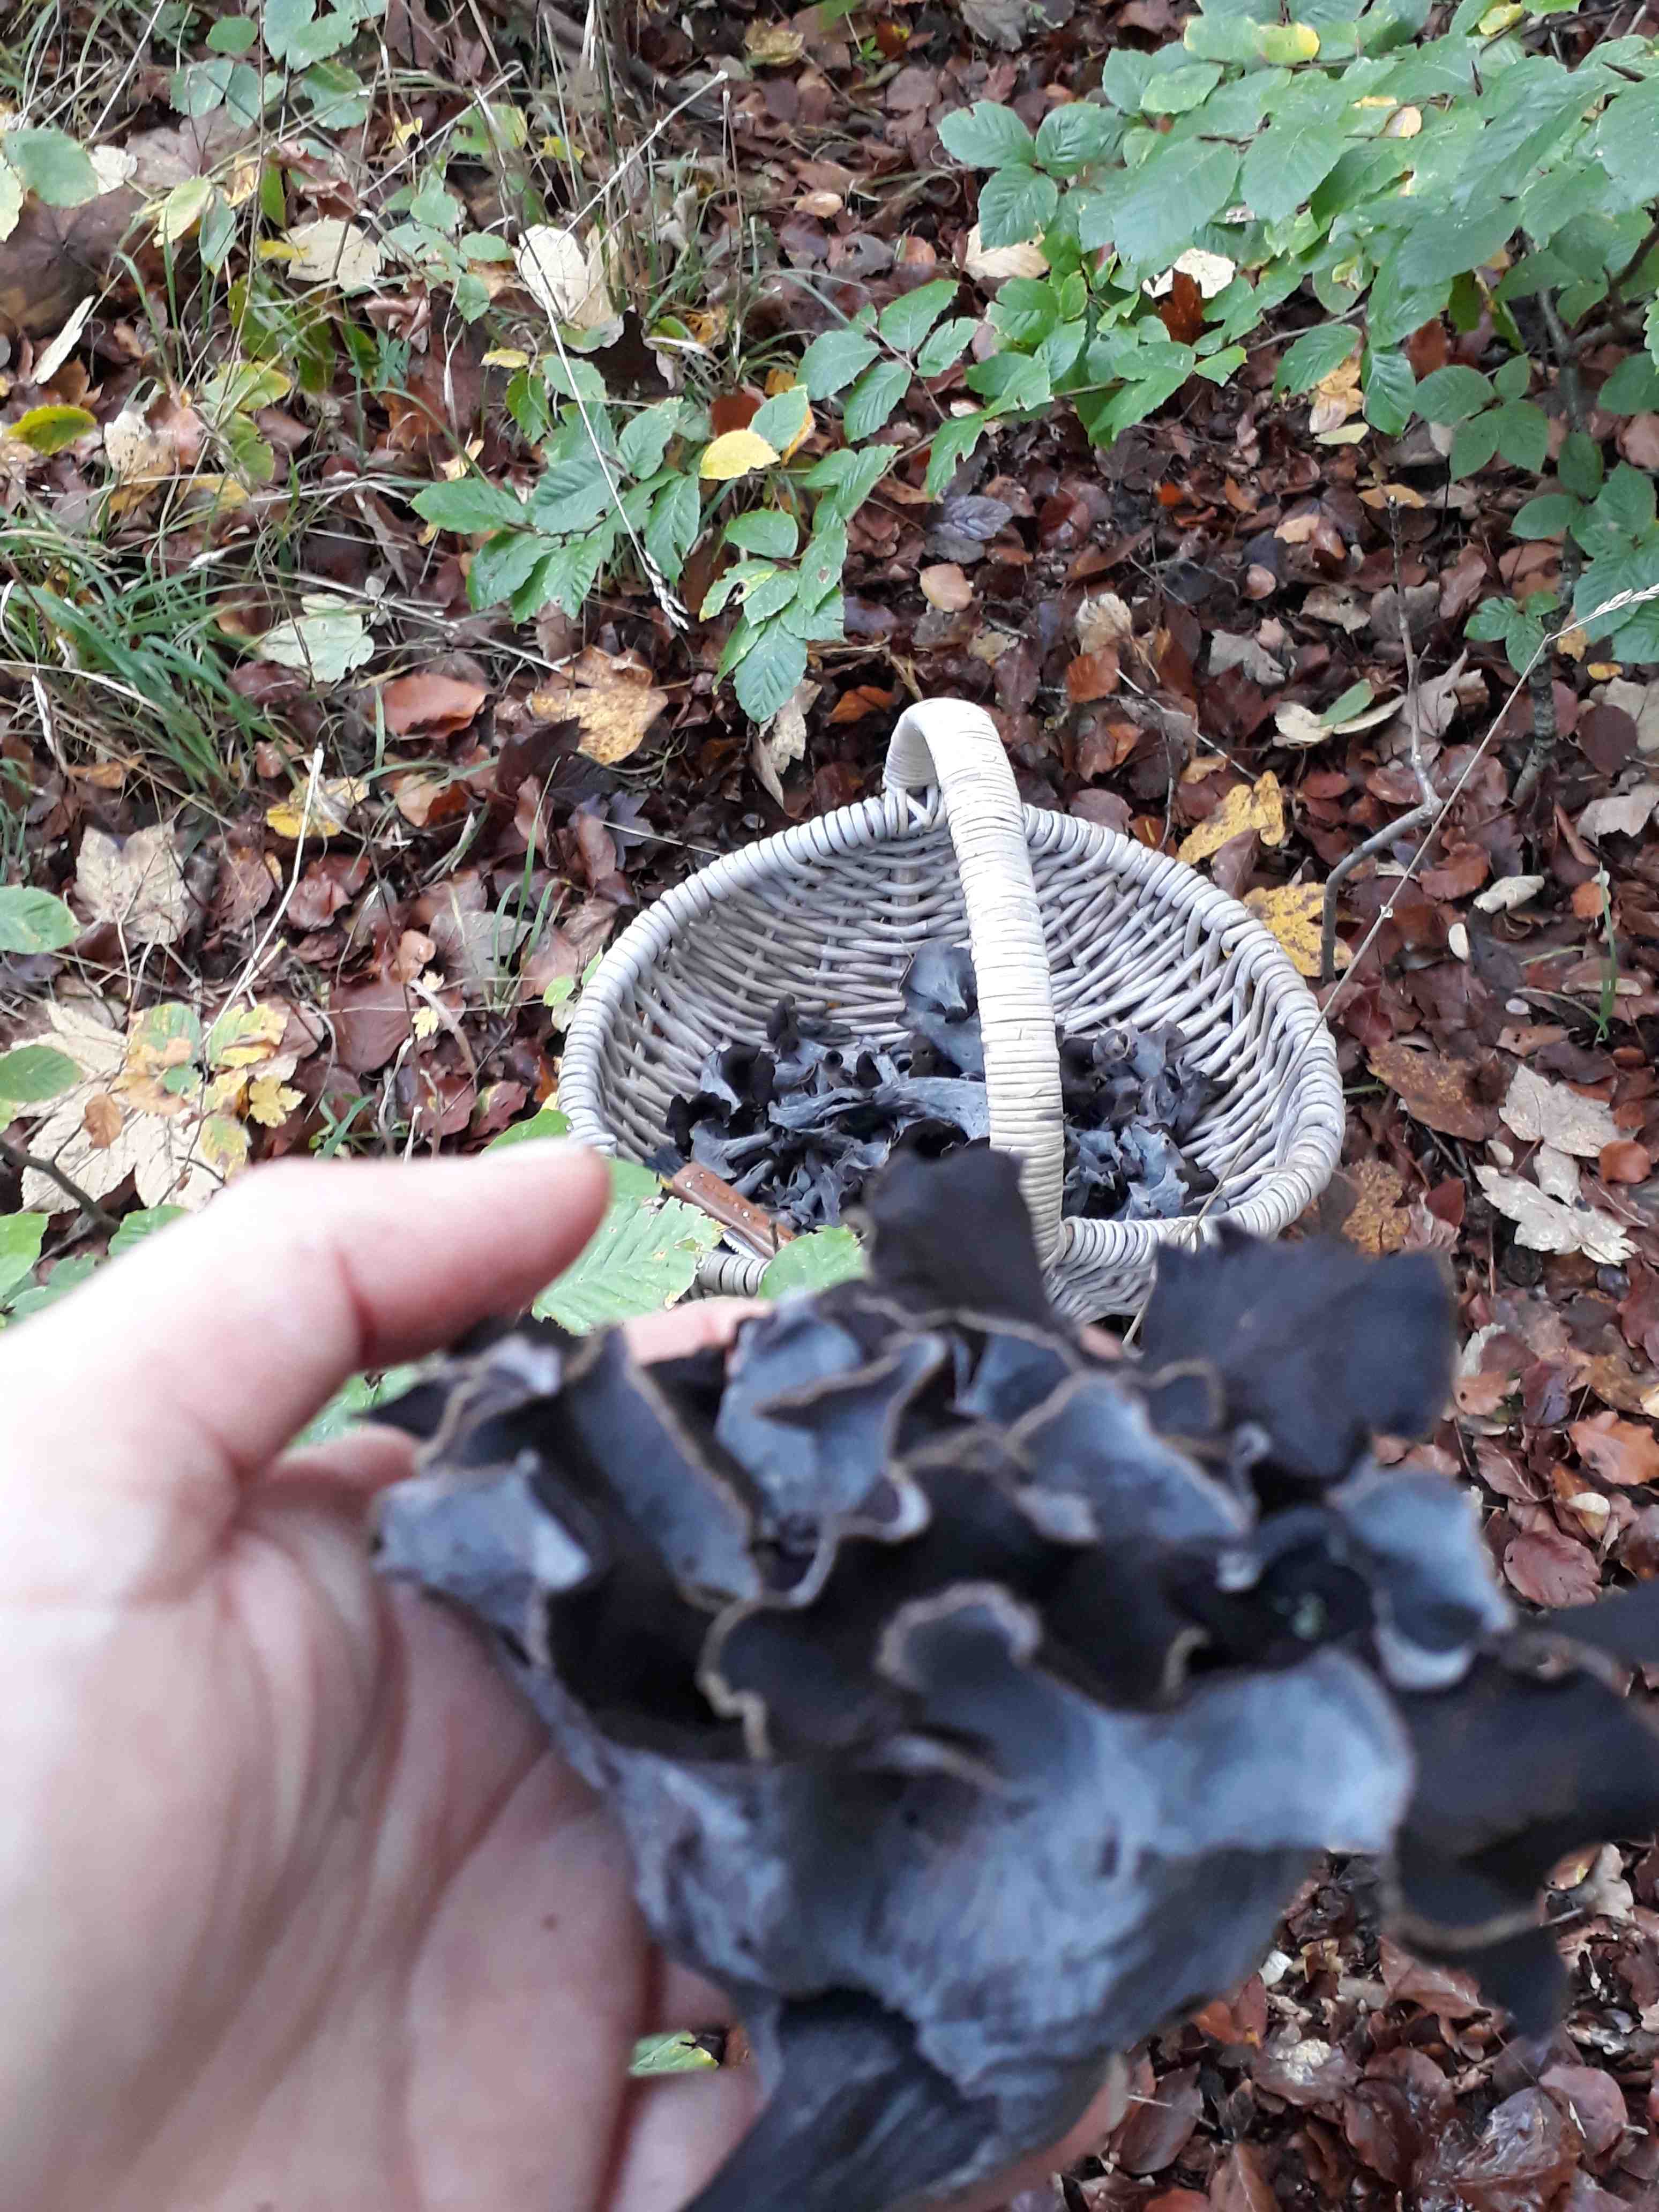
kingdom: Fungi
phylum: Basidiomycota
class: Agaricomycetes
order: Cantharellales
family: Hydnaceae
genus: Craterellus
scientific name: Craterellus cornucopioides
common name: trompetsvamp
